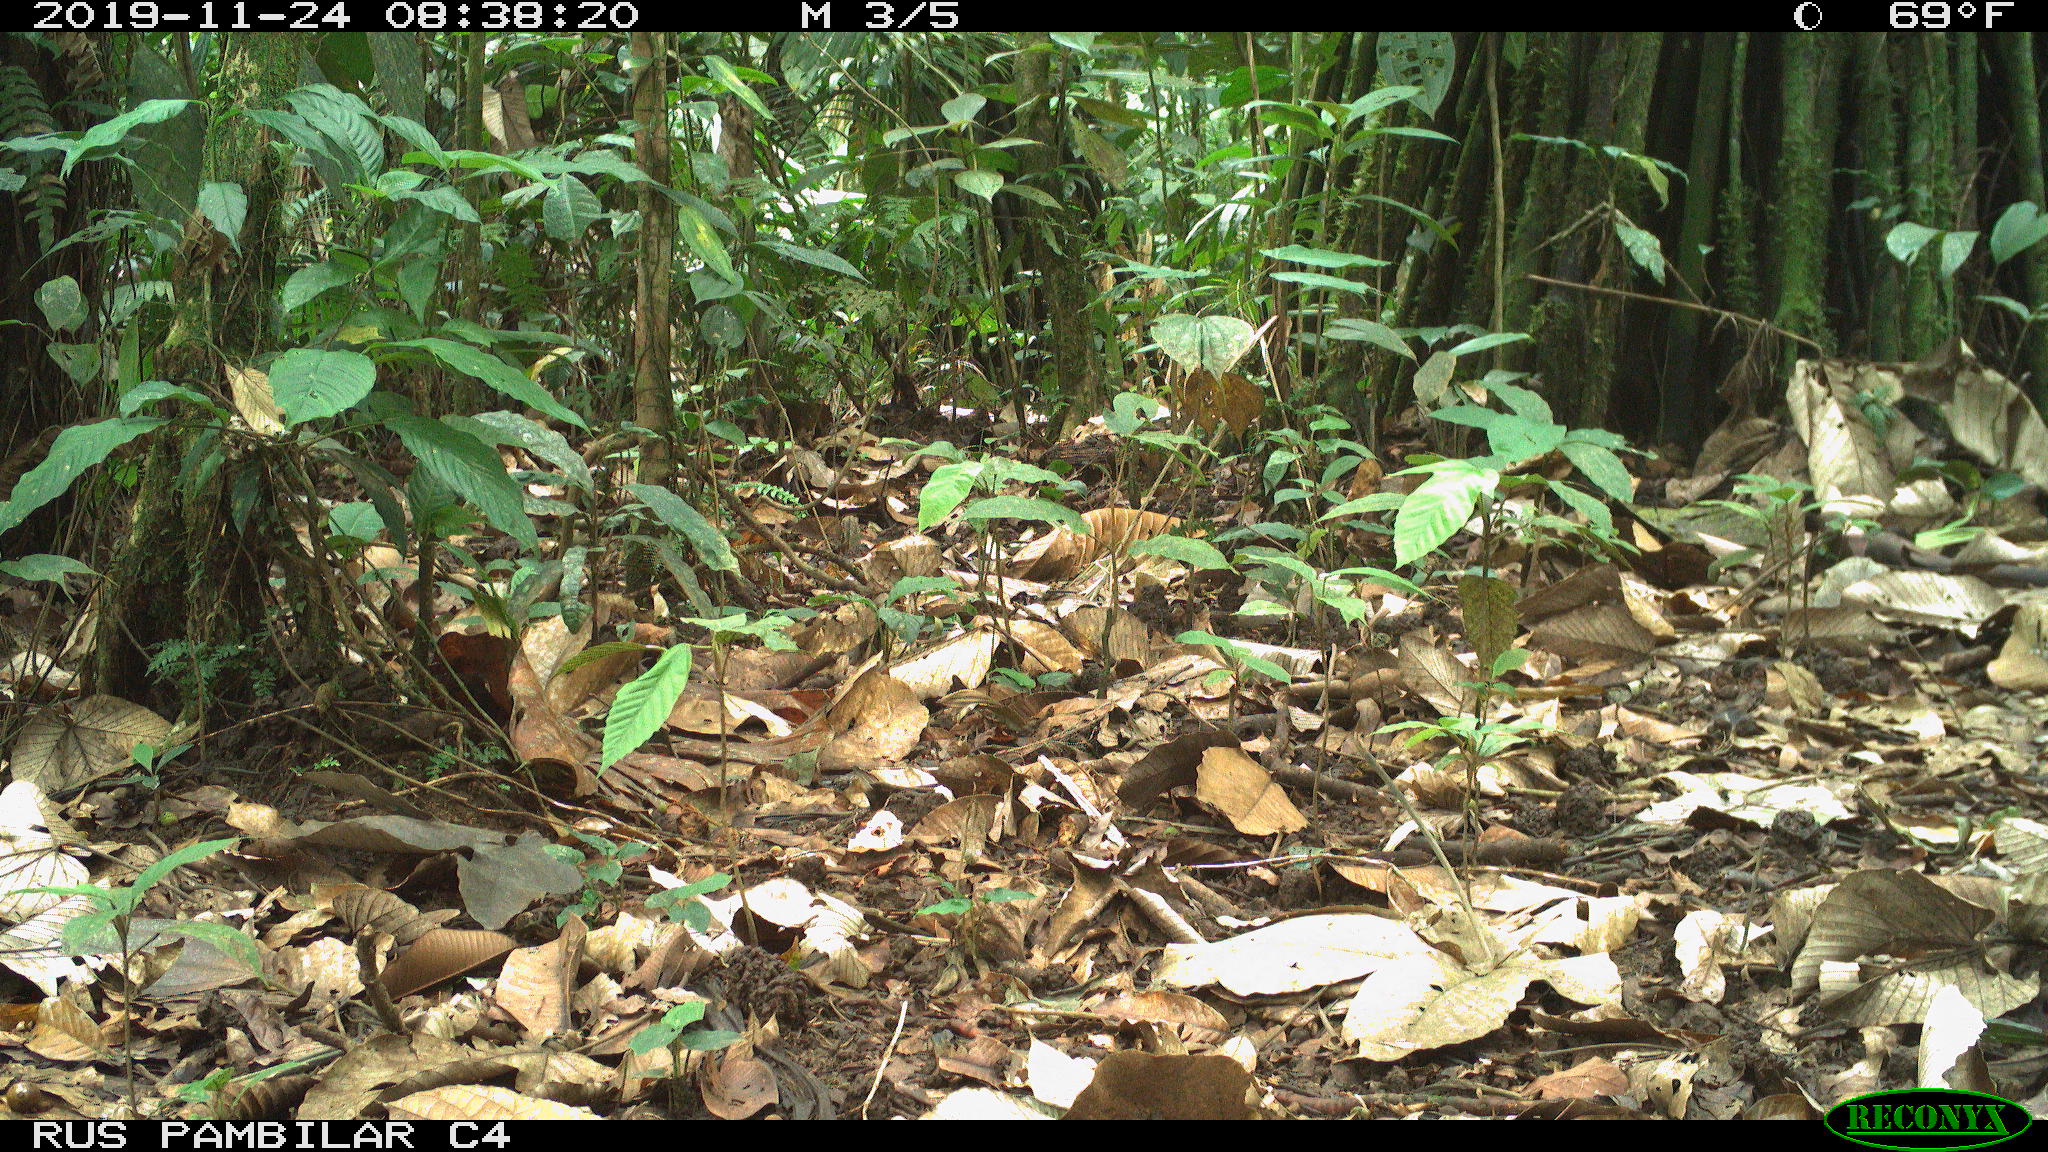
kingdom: Animalia
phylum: Chordata
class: Mammalia
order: Rodentia
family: Dasyproctidae
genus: Dasyprocta
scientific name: Dasyprocta punctata
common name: Central american agouti
